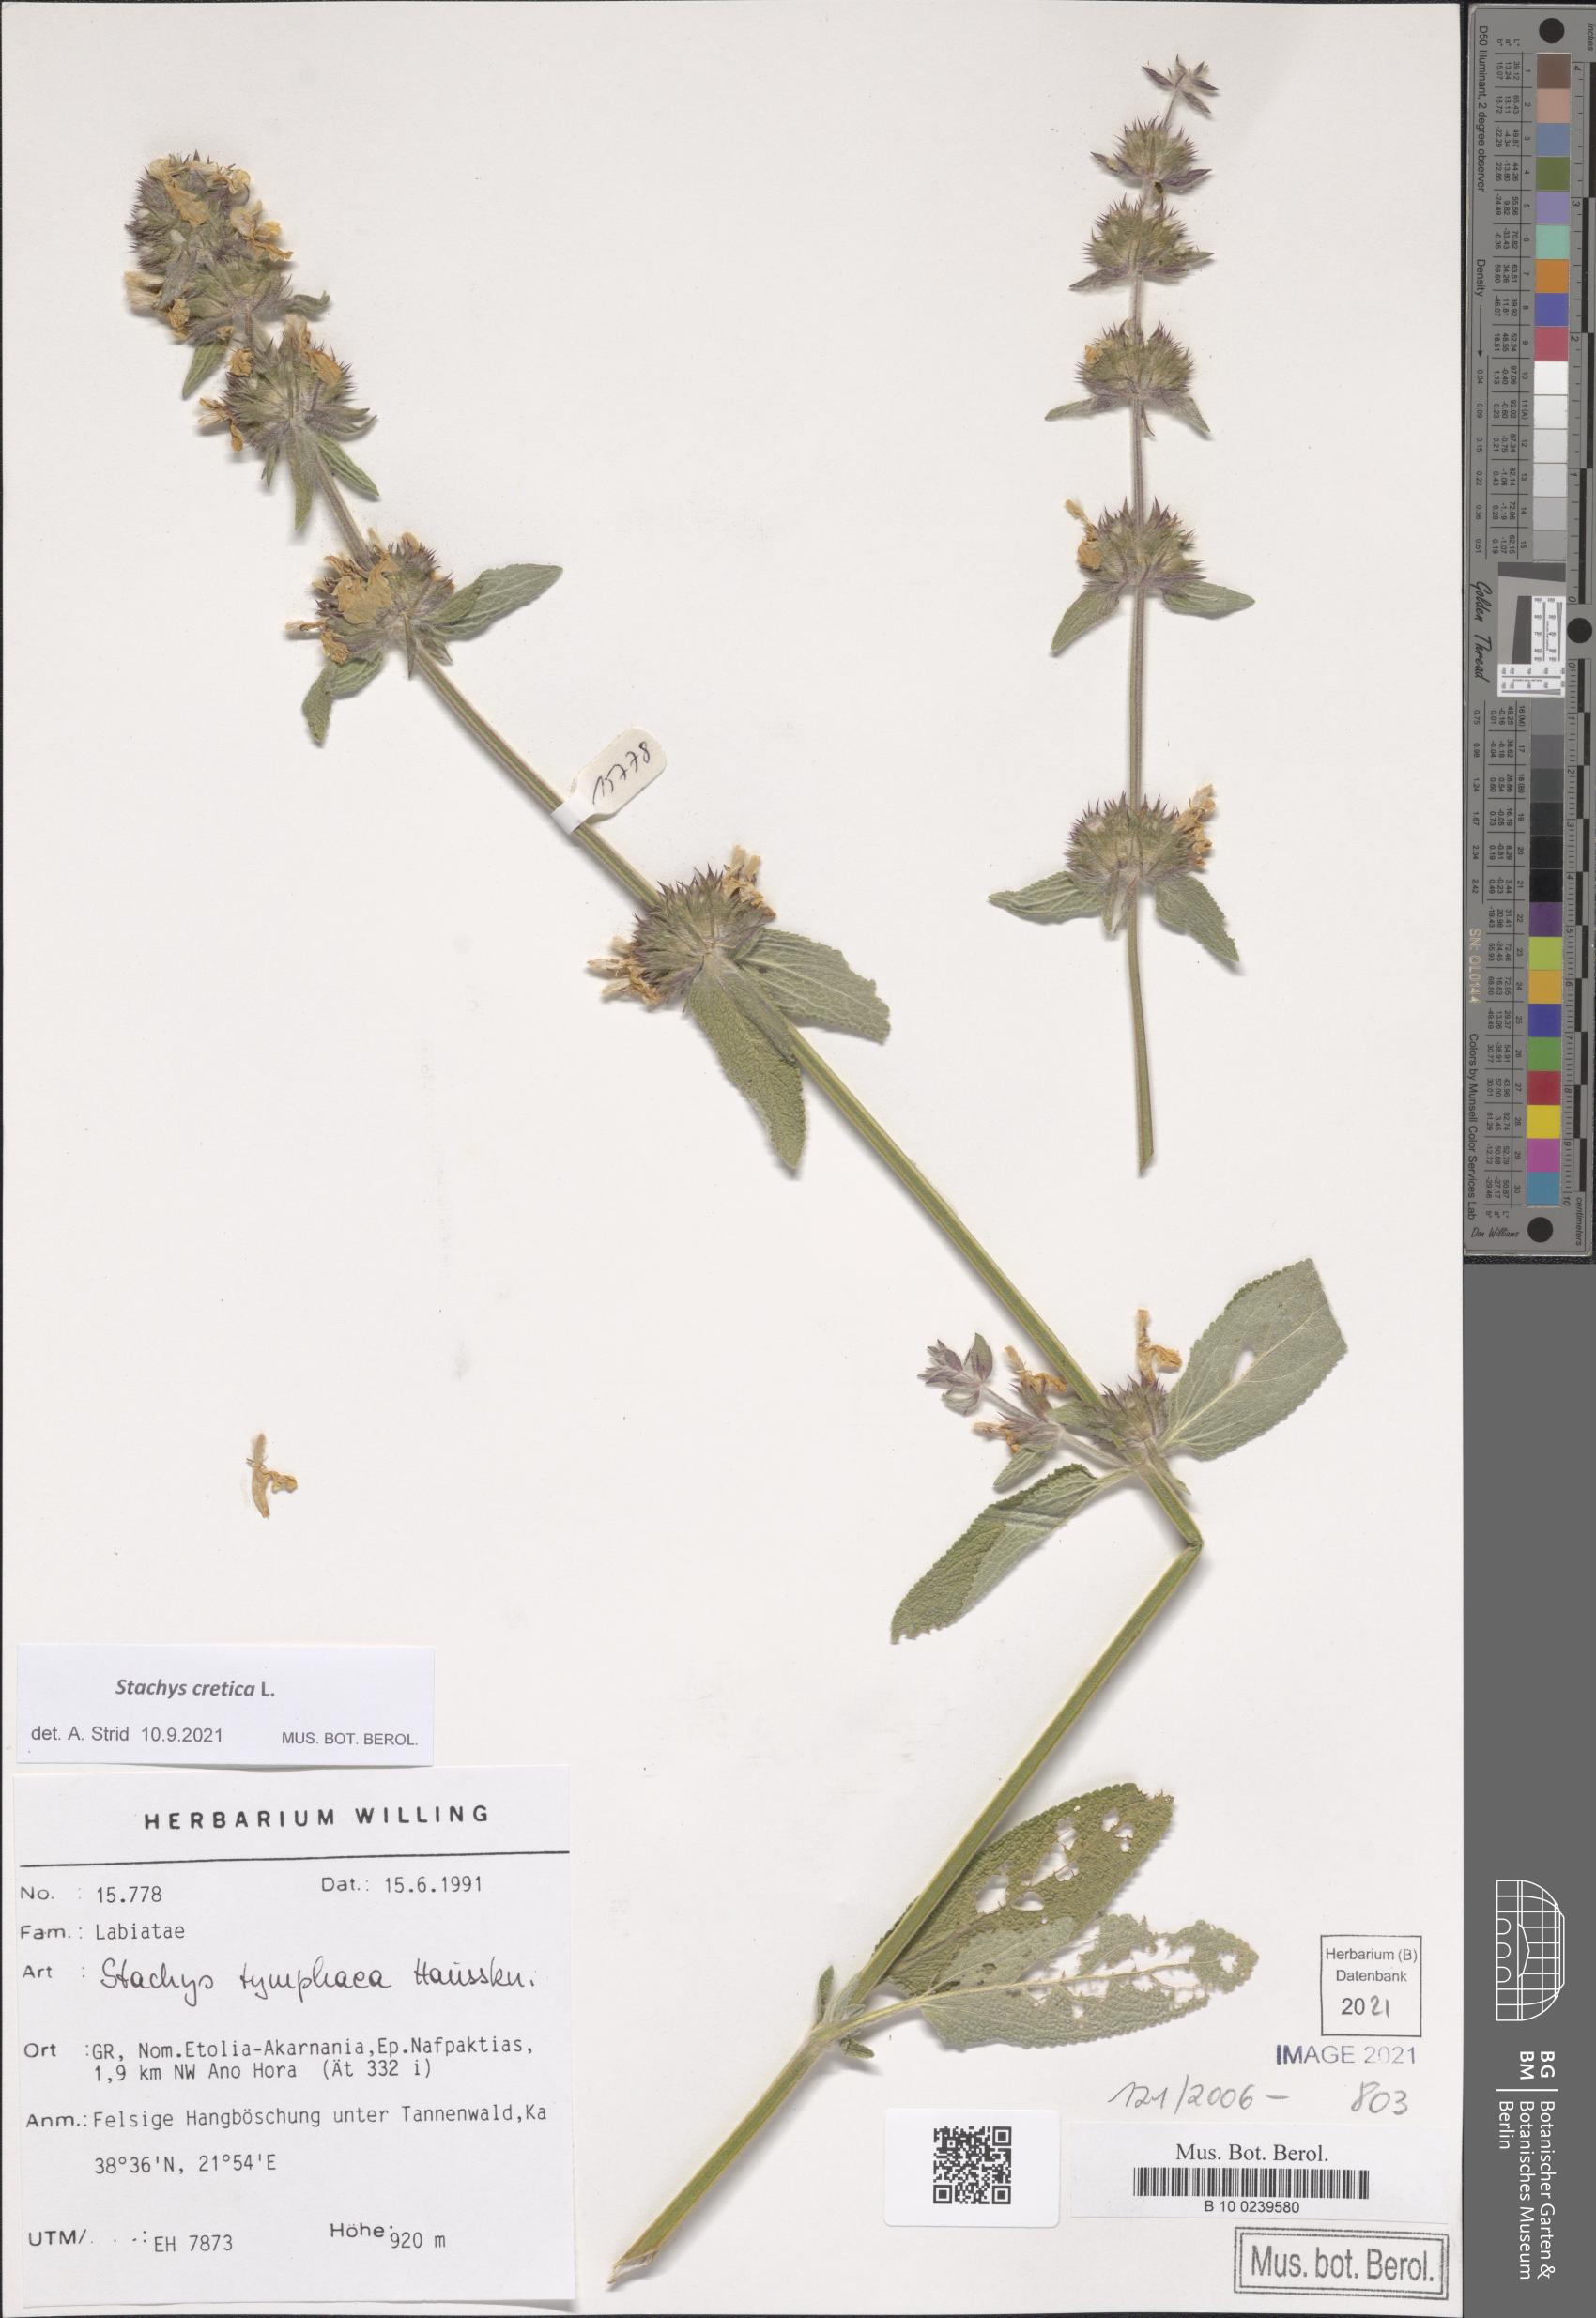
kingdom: Plantae
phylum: Tracheophyta
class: Magnoliopsida
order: Lamiales
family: Lamiaceae
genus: Stachys
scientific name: Stachys cretica
